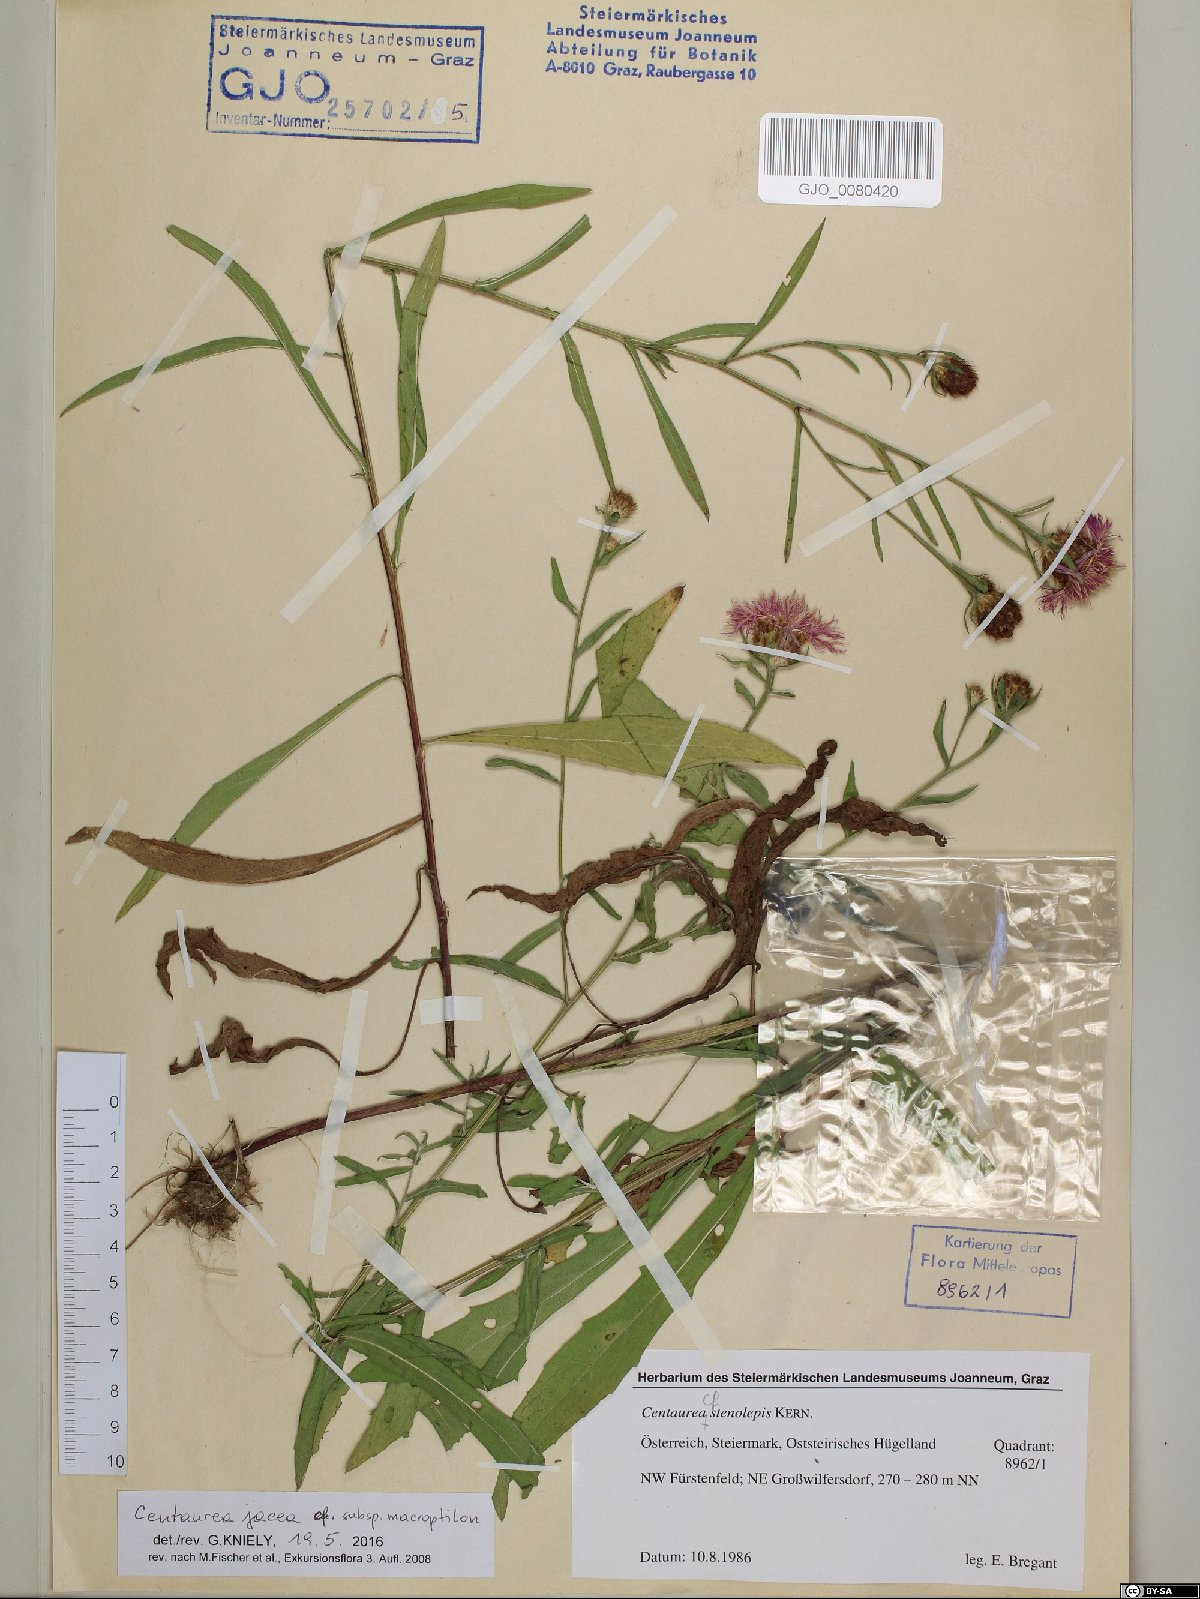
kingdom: Plantae
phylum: Tracheophyta
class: Magnoliopsida
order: Asterales
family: Asteraceae
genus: Centaurea
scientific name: Centaurea
